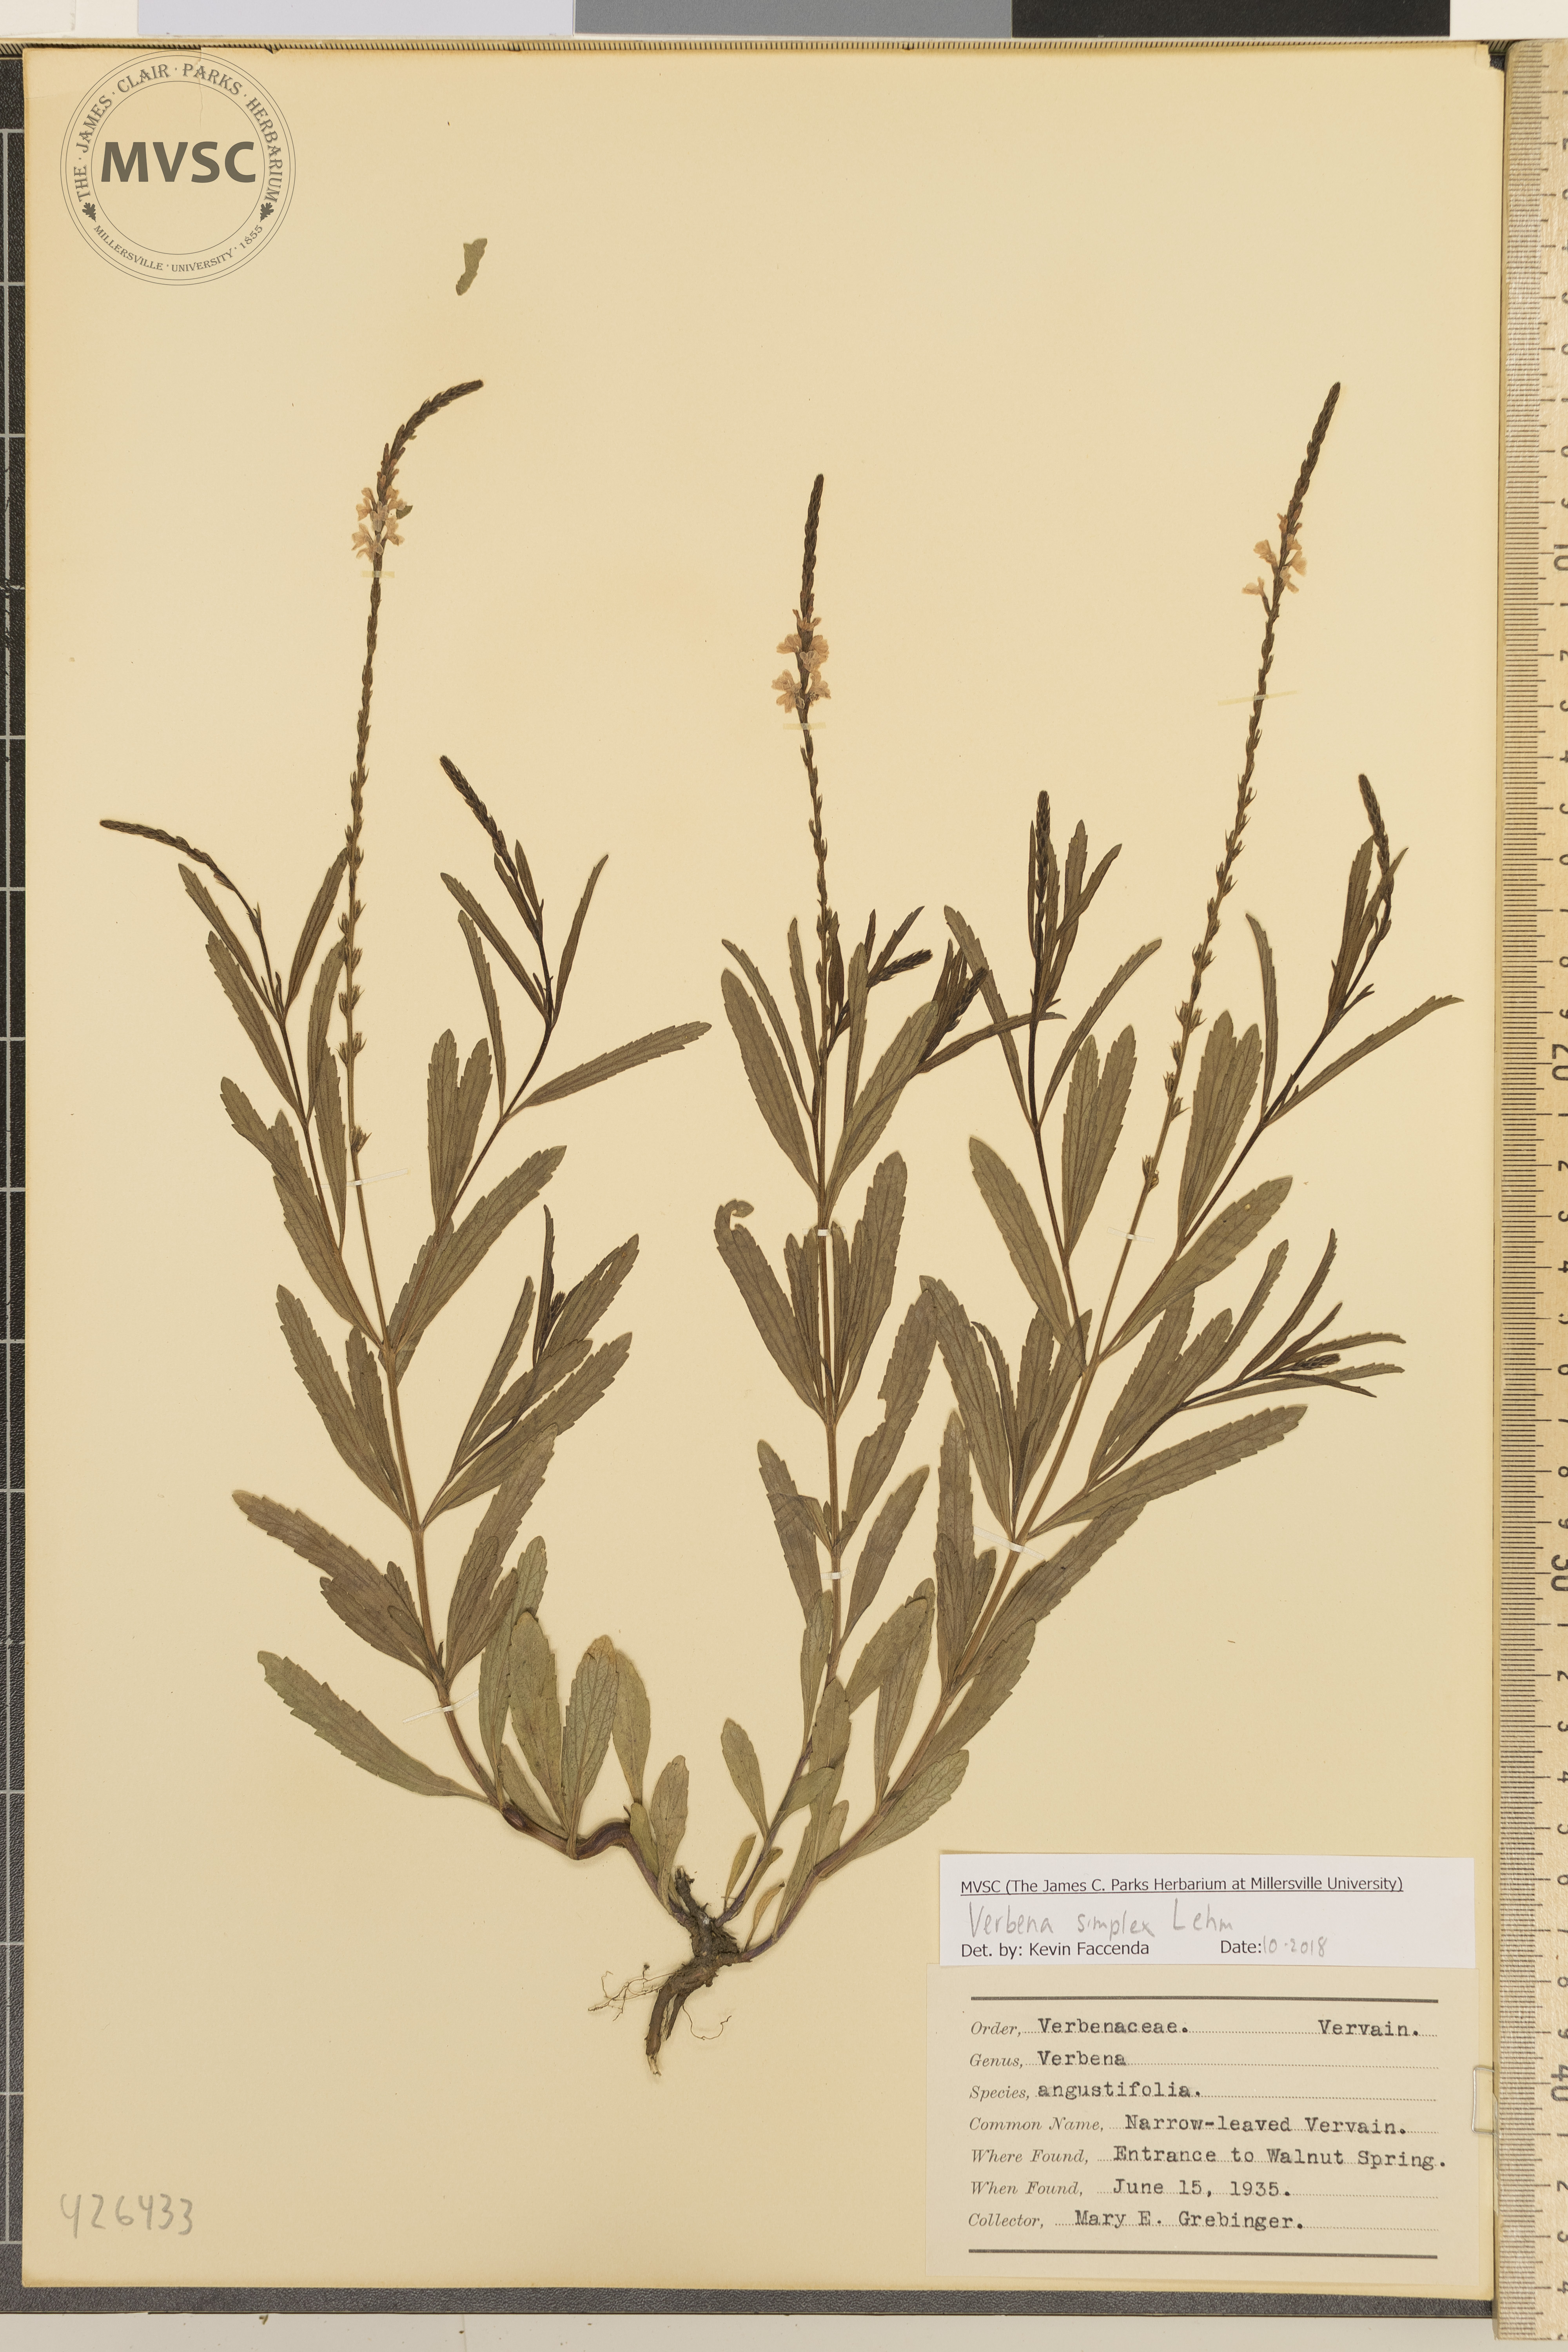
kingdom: Plantae
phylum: Tracheophyta
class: Magnoliopsida
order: Lamiales
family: Verbenaceae
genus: Verbena
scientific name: Verbena simplex
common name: Narrow-leaved vervain
